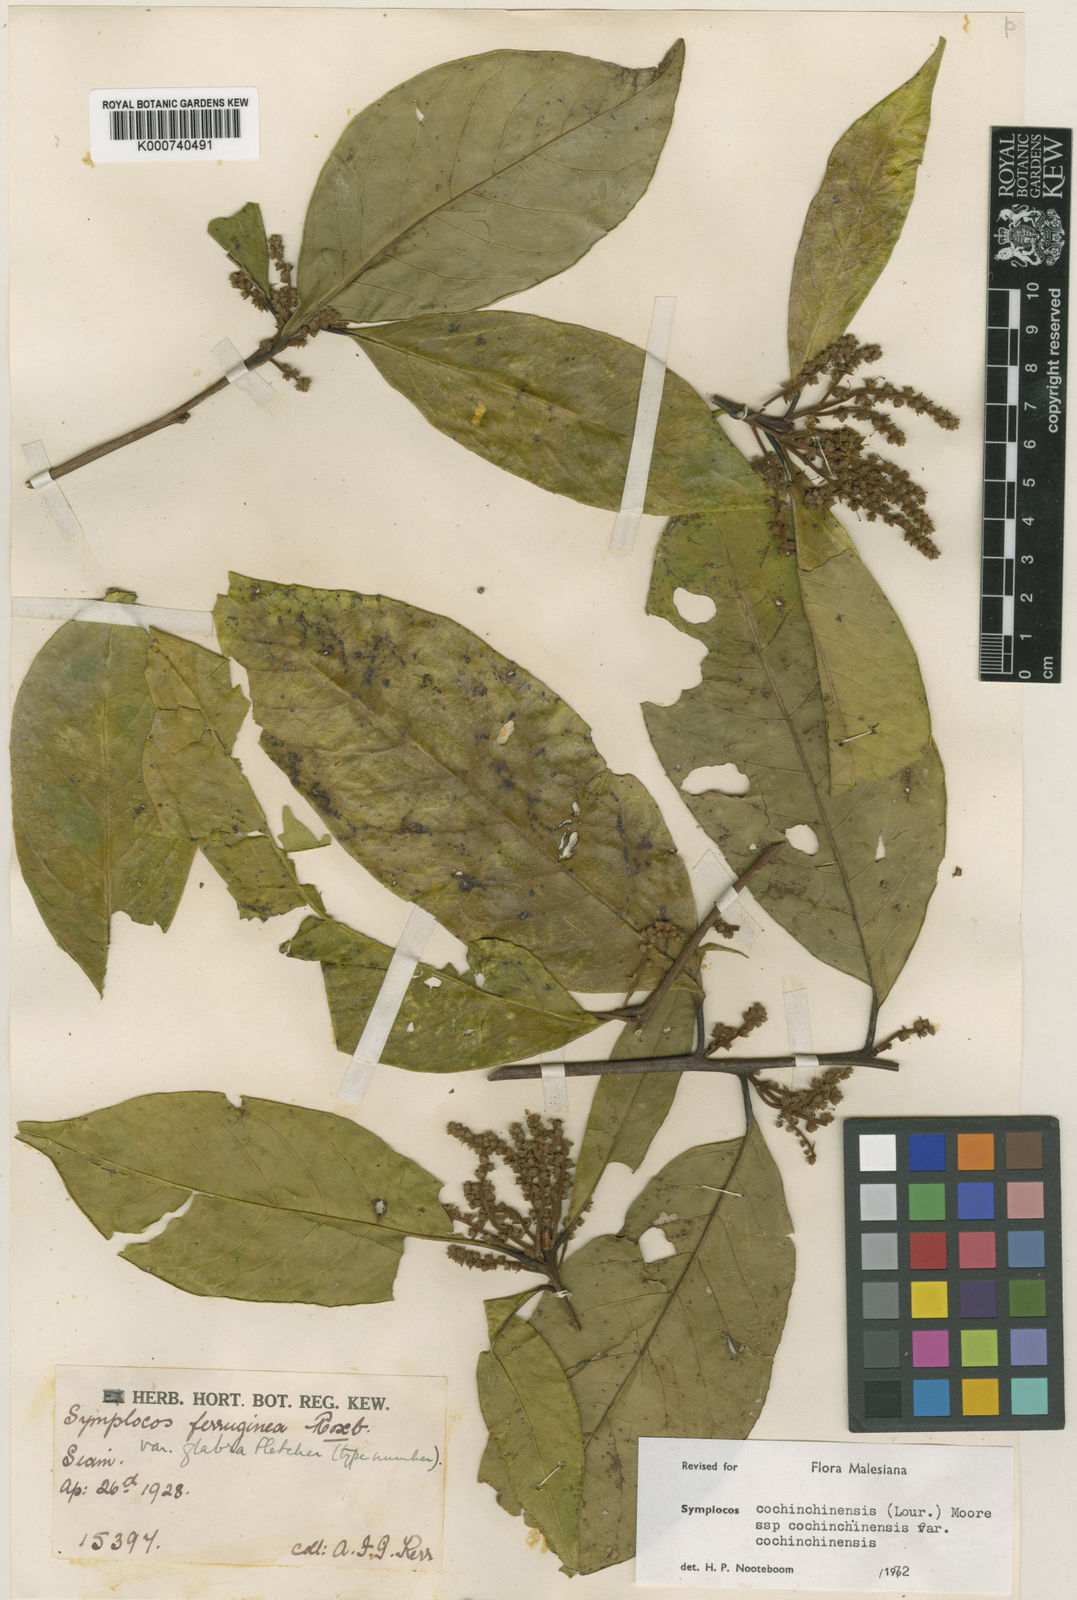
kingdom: Plantae
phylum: Tracheophyta
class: Magnoliopsida
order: Ericales
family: Symplocaceae
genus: Symplocos
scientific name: Symplocos cochinchinensis
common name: Buff hazelwood
